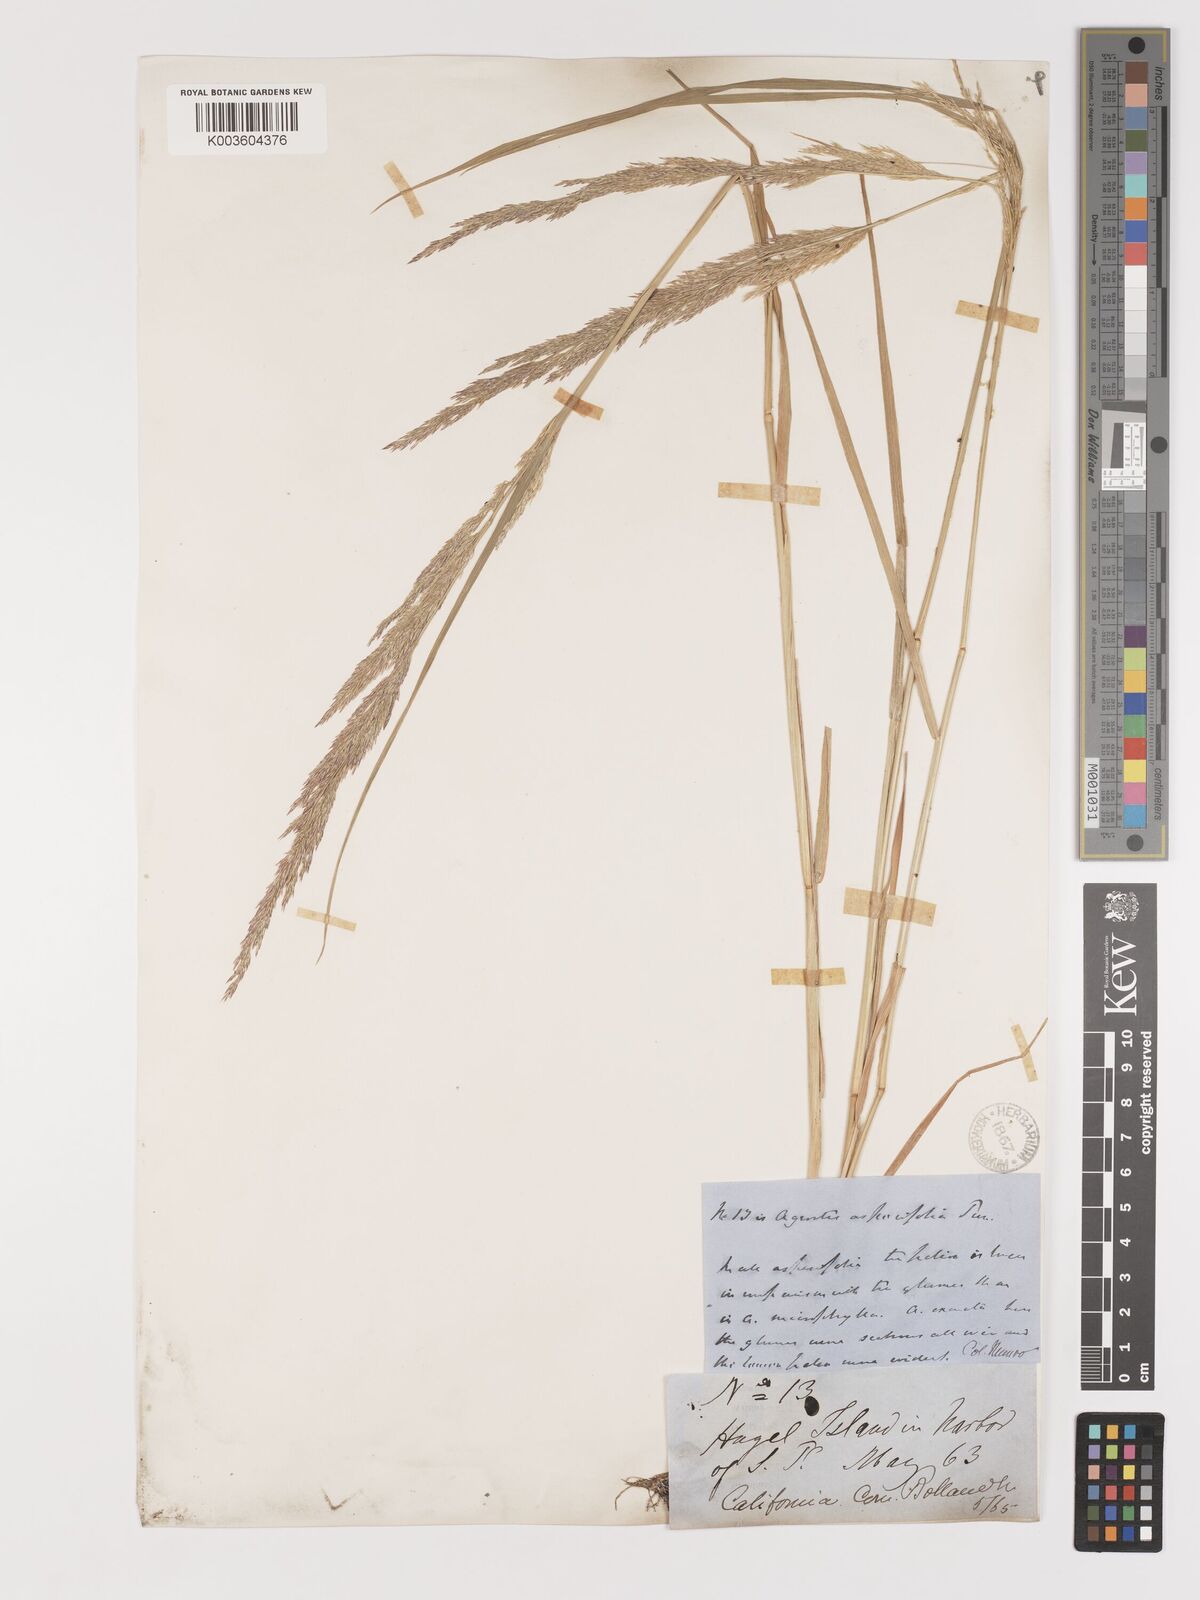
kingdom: Plantae
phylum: Tracheophyta
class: Liliopsida
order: Poales
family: Poaceae
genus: Agrostis
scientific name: Agrostis exarata
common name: Spike bent
